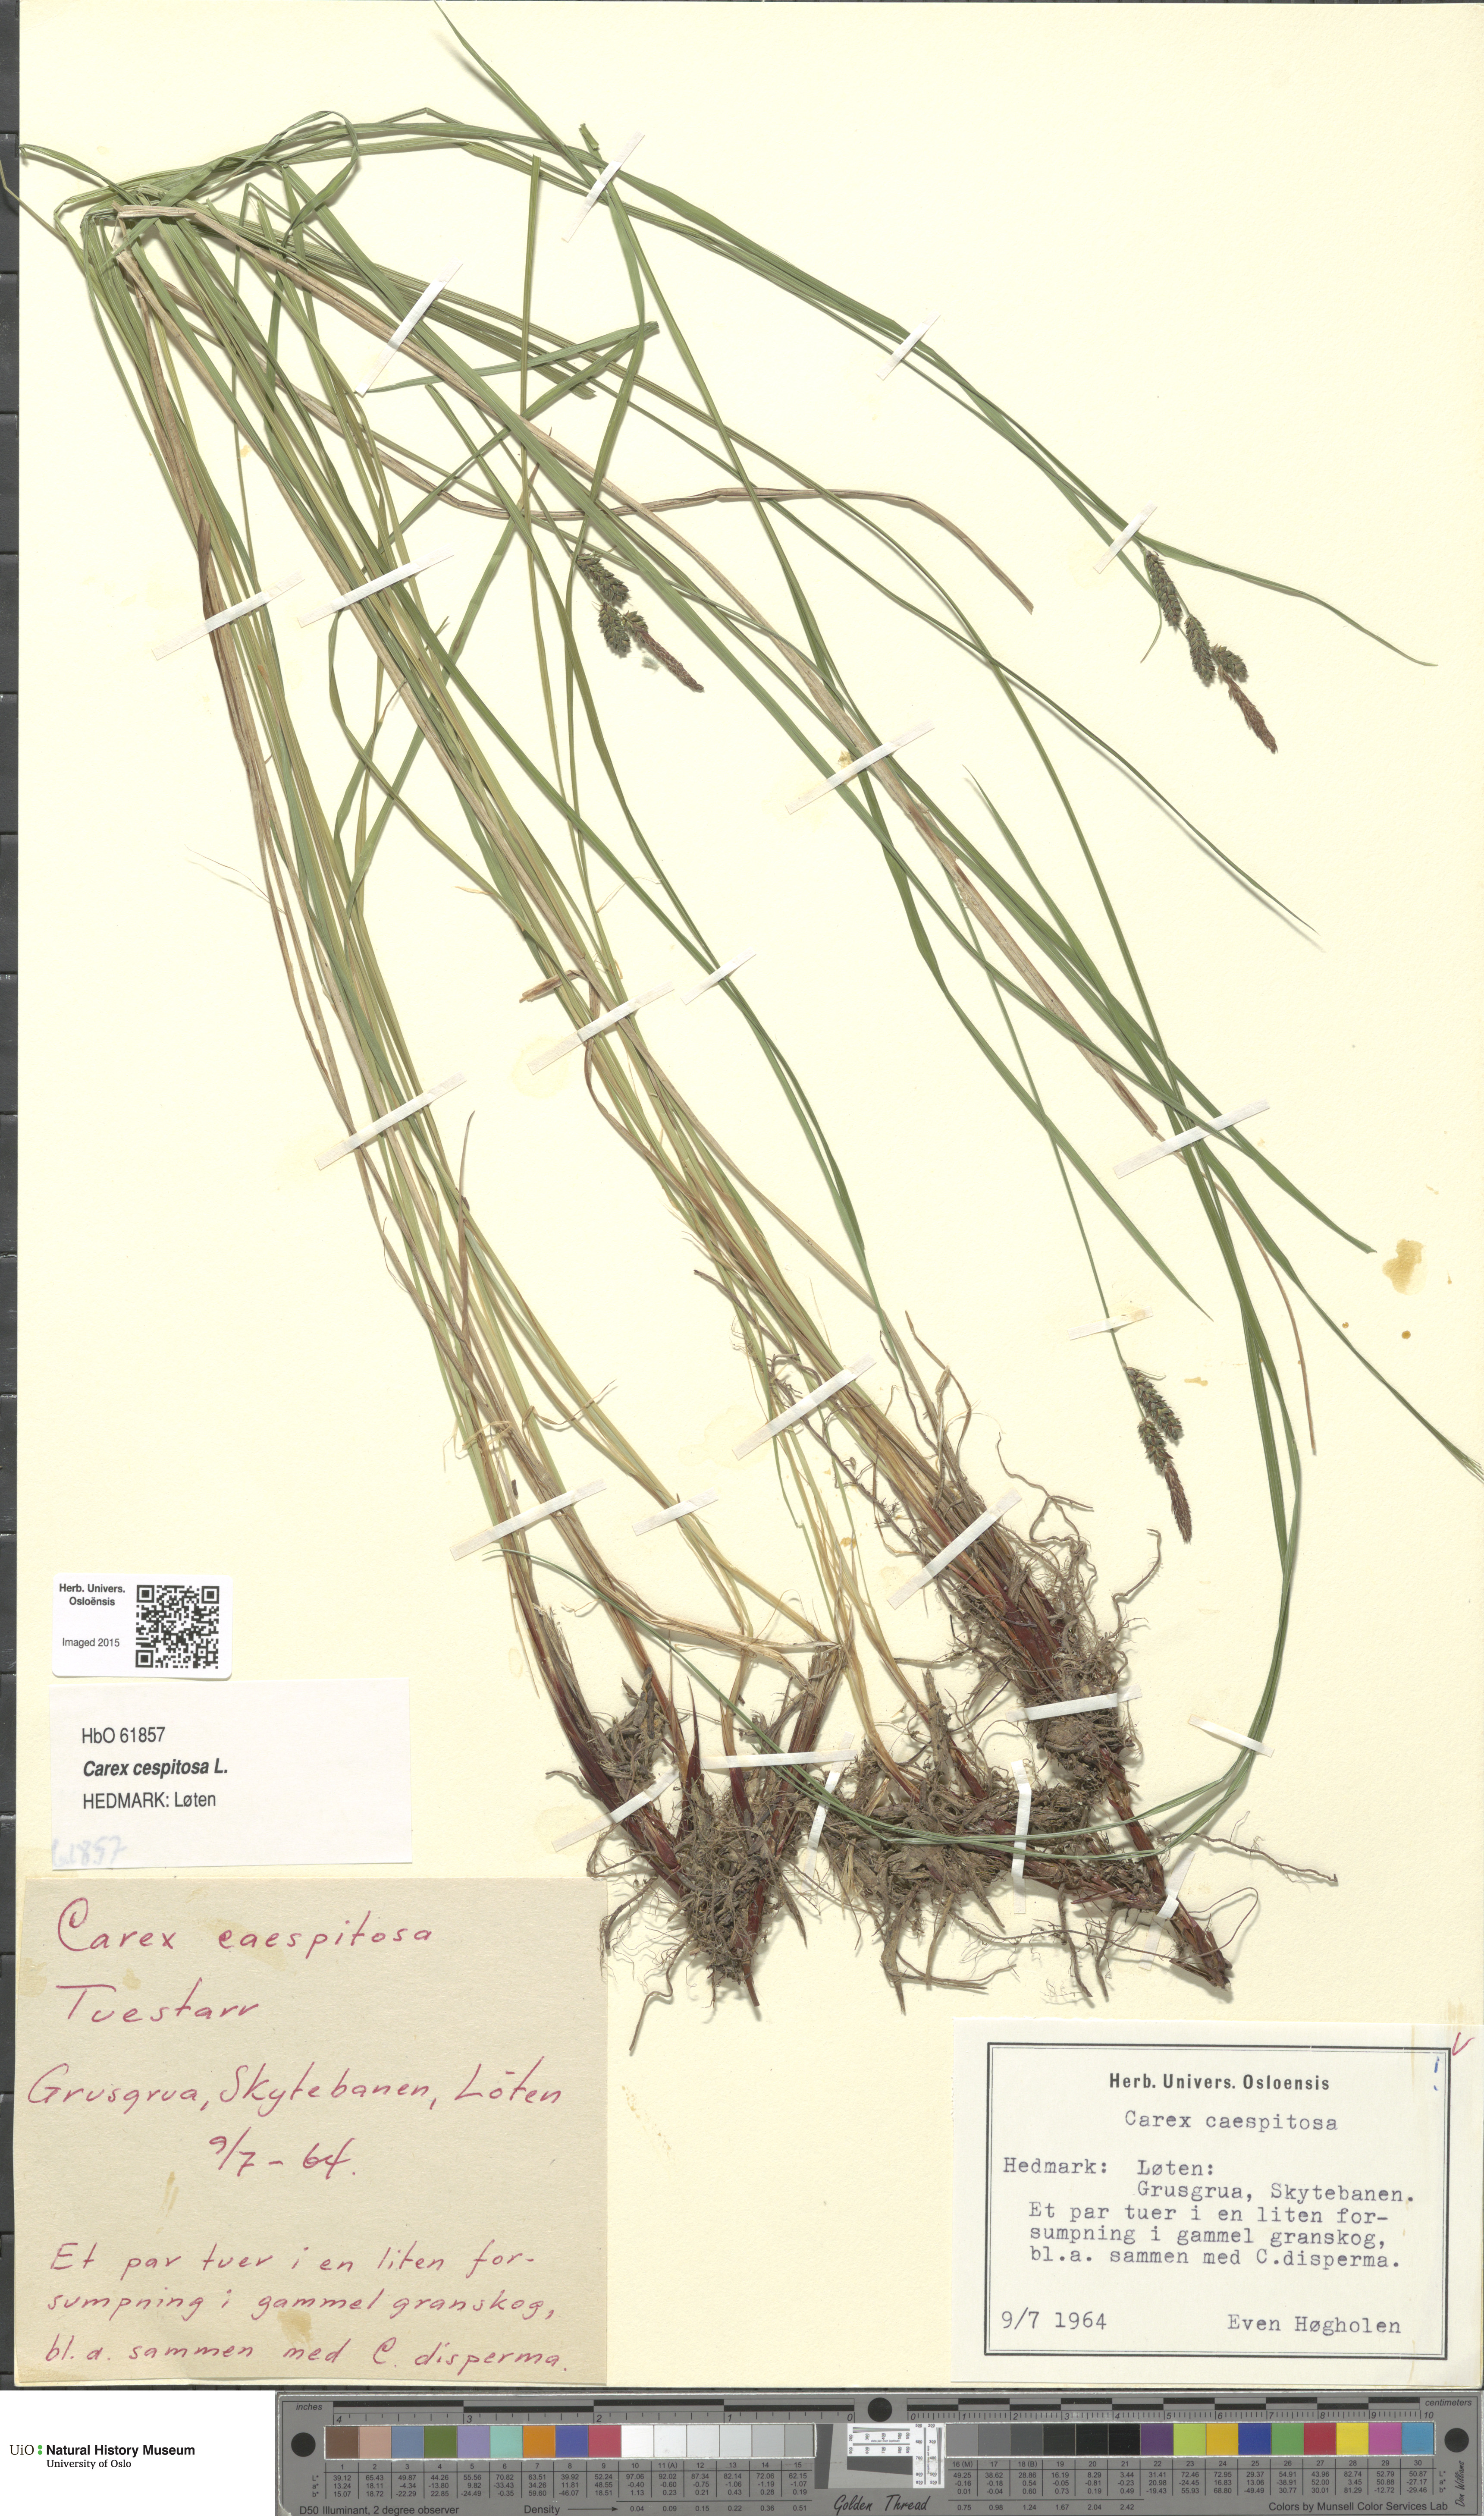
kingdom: Plantae
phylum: Tracheophyta
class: Liliopsida
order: Poales
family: Cyperaceae
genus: Carex
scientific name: Carex cespitosa
